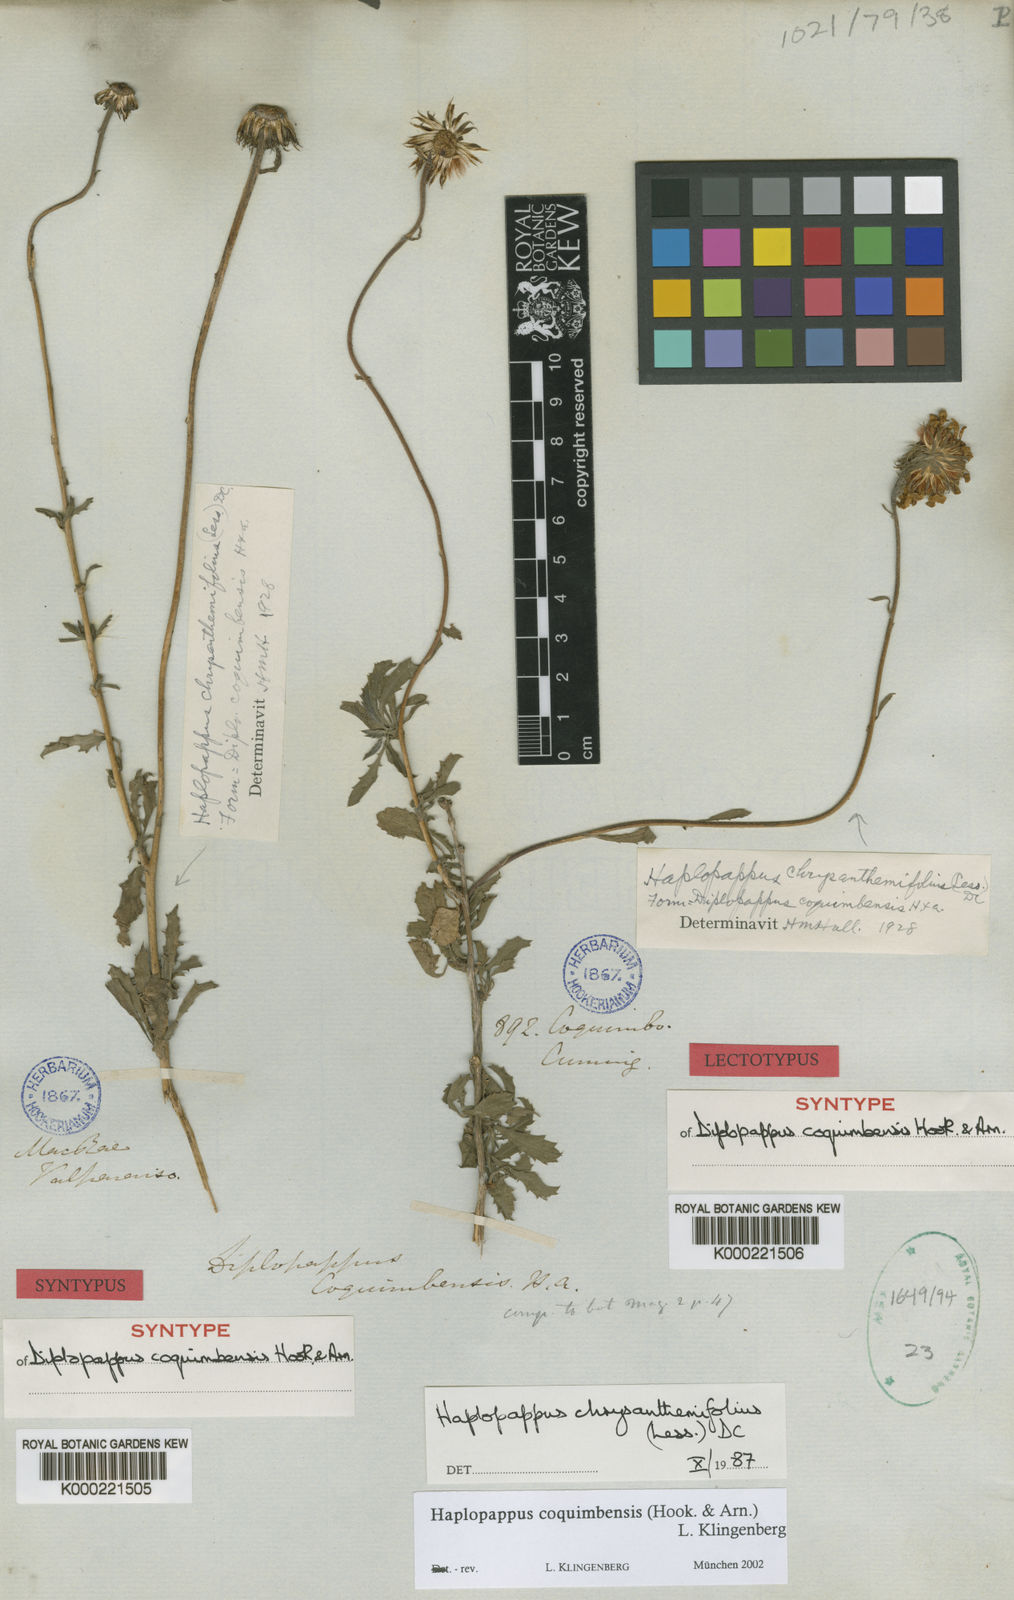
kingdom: Plantae
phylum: Tracheophyta
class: Magnoliopsida
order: Asterales
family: Asteraceae
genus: Haplopappus
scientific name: Haplopappus
